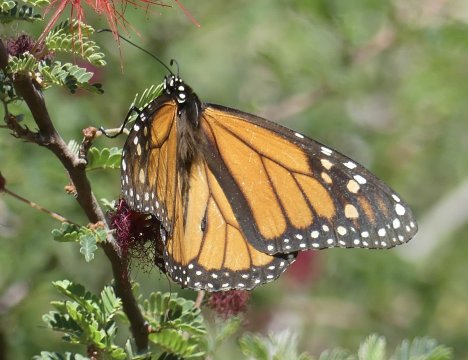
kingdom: Animalia
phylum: Arthropoda
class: Insecta
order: Lepidoptera
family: Nymphalidae
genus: Danaus
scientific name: Danaus plexippus
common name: Monarch
